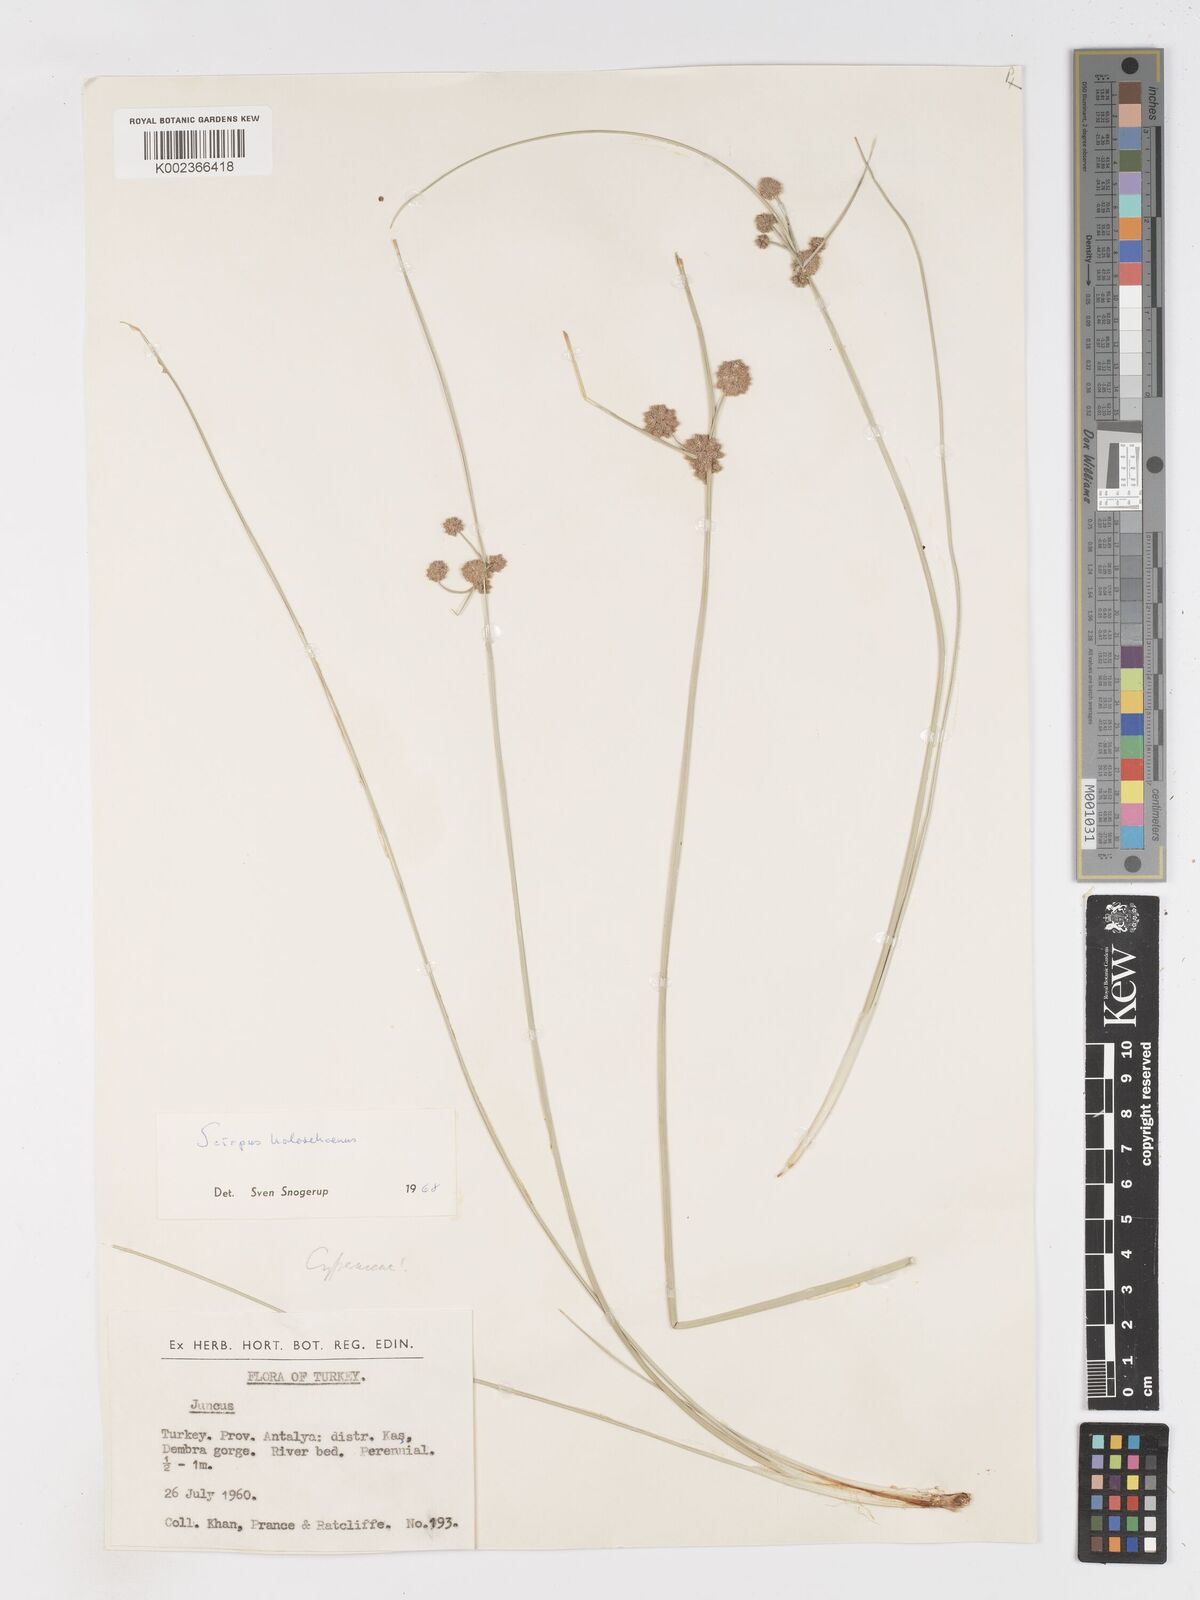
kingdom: Plantae
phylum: Tracheophyta
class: Liliopsida
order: Poales
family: Cyperaceae
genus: Scirpoides
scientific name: Scirpoides holoschoenus
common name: Round-headed club-rush
